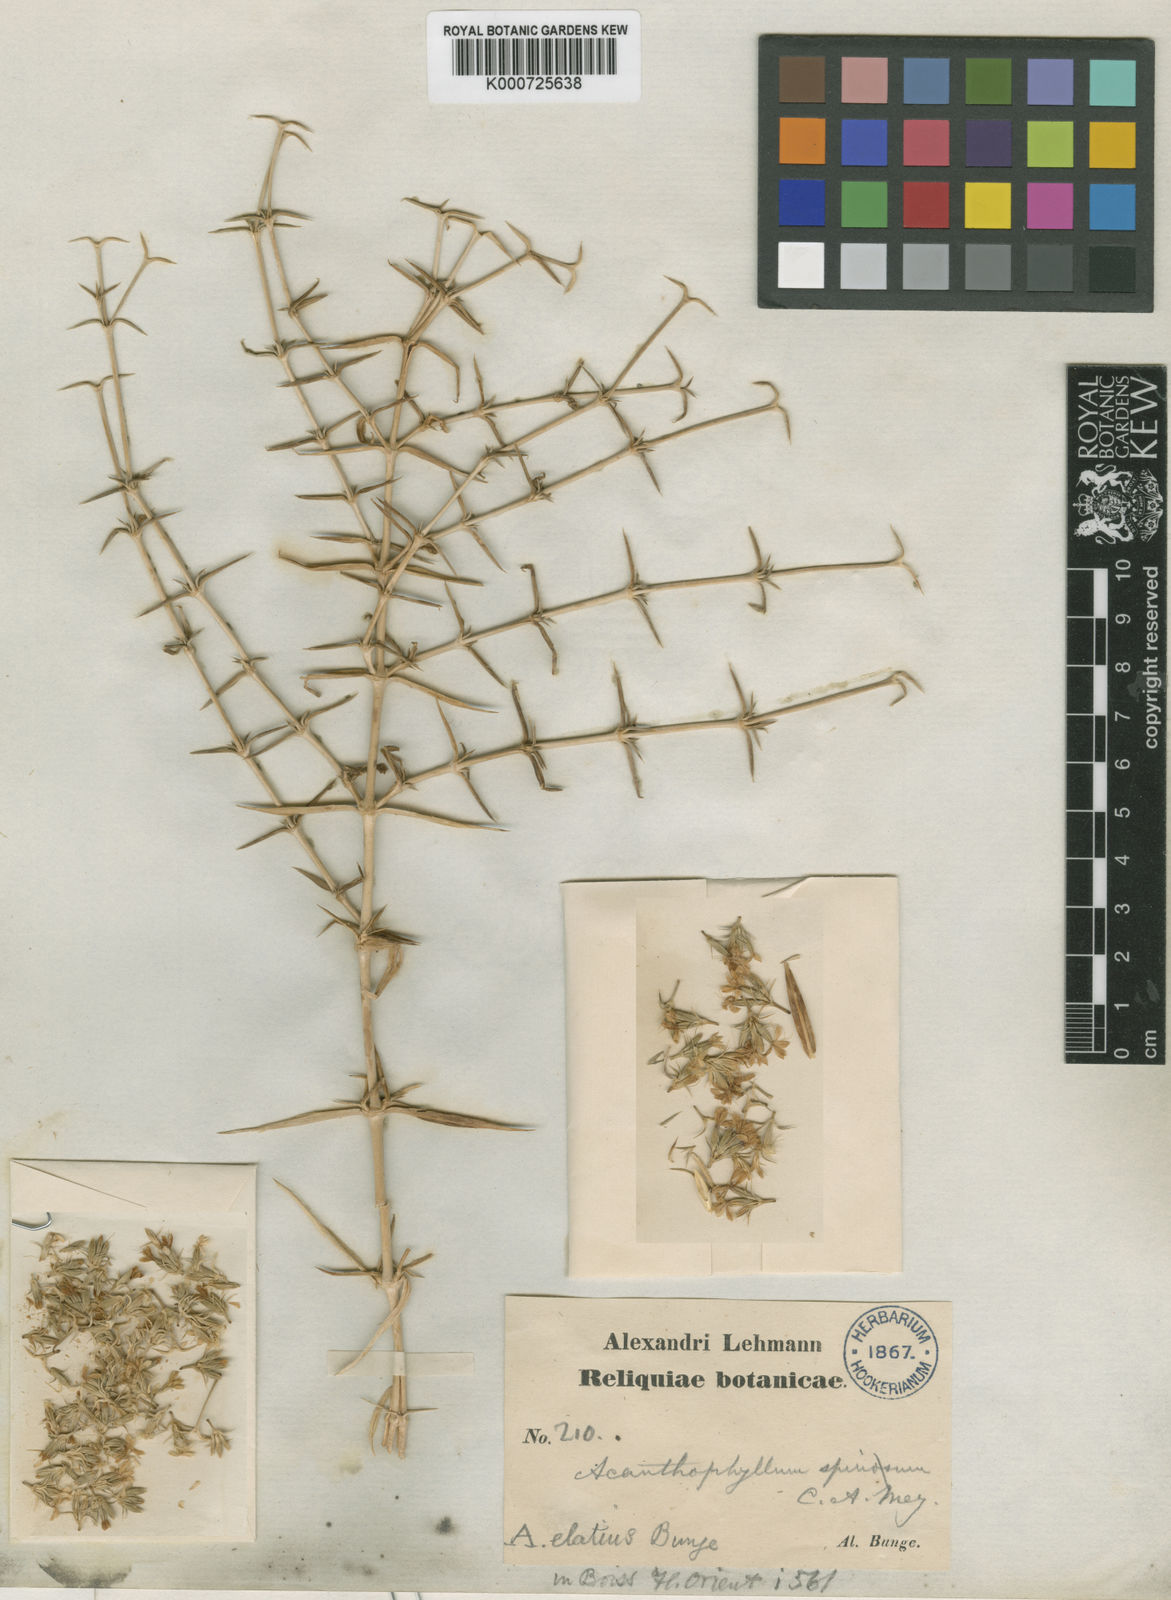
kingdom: Plantae
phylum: Tracheophyta
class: Magnoliopsida
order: Caryophyllales
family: Caryophyllaceae
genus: Acanthophyllum
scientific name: Acanthophyllum elatius
